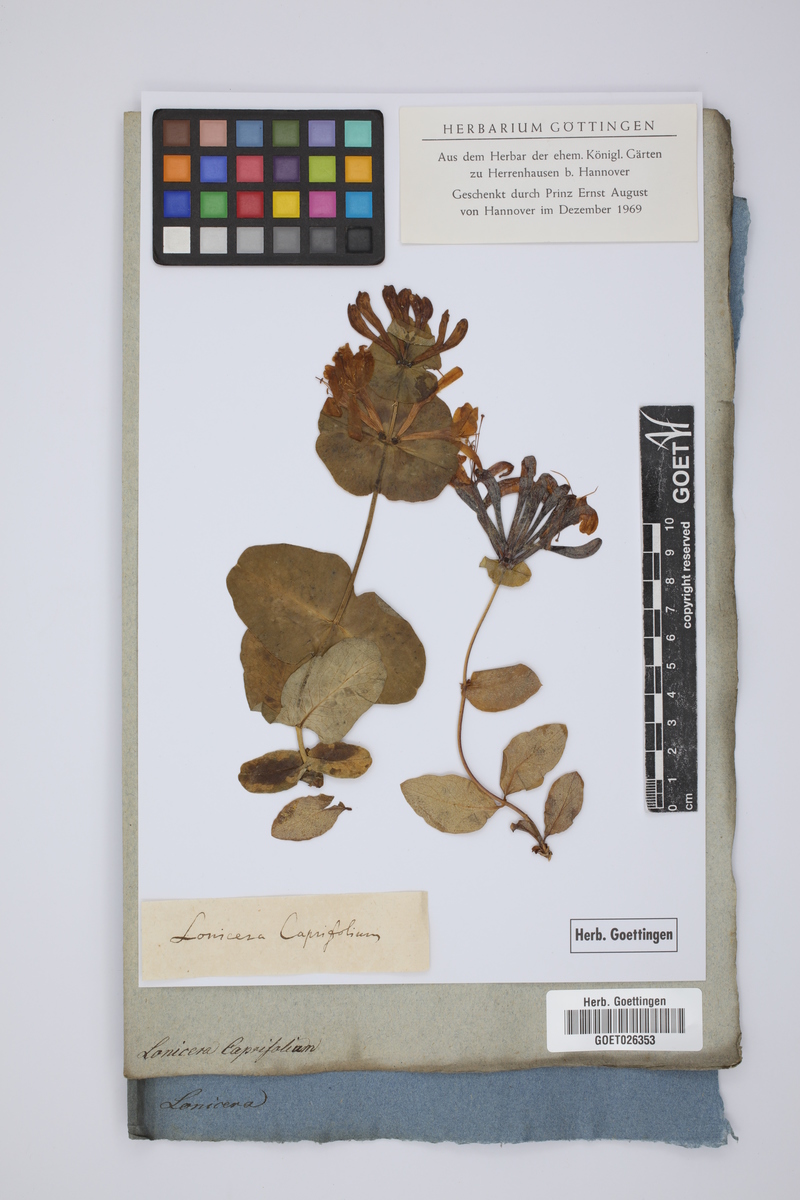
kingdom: Plantae
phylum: Tracheophyta
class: Magnoliopsida
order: Dipsacales
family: Caprifoliaceae
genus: Lonicera
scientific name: Lonicera caprifolium
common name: Perfoliate honeysuckle
